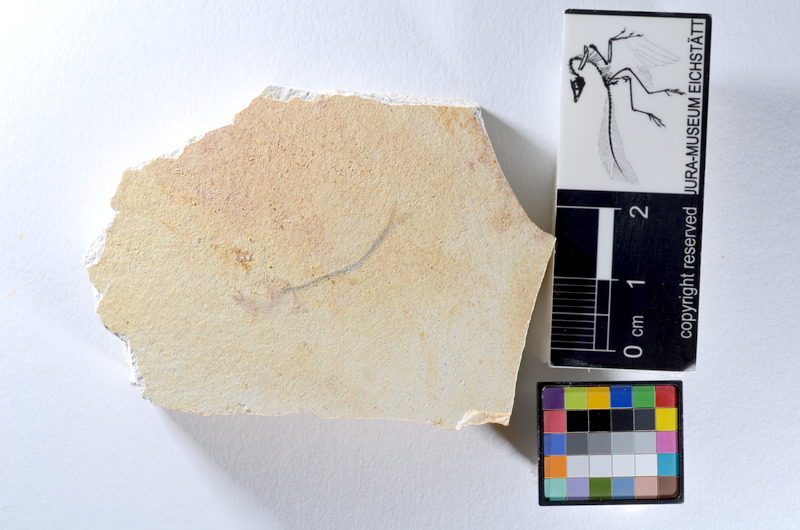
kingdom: Animalia
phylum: Chordata
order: Salmoniformes
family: Orthogonikleithridae
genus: Orthogonikleithrus
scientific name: Orthogonikleithrus hoelli
